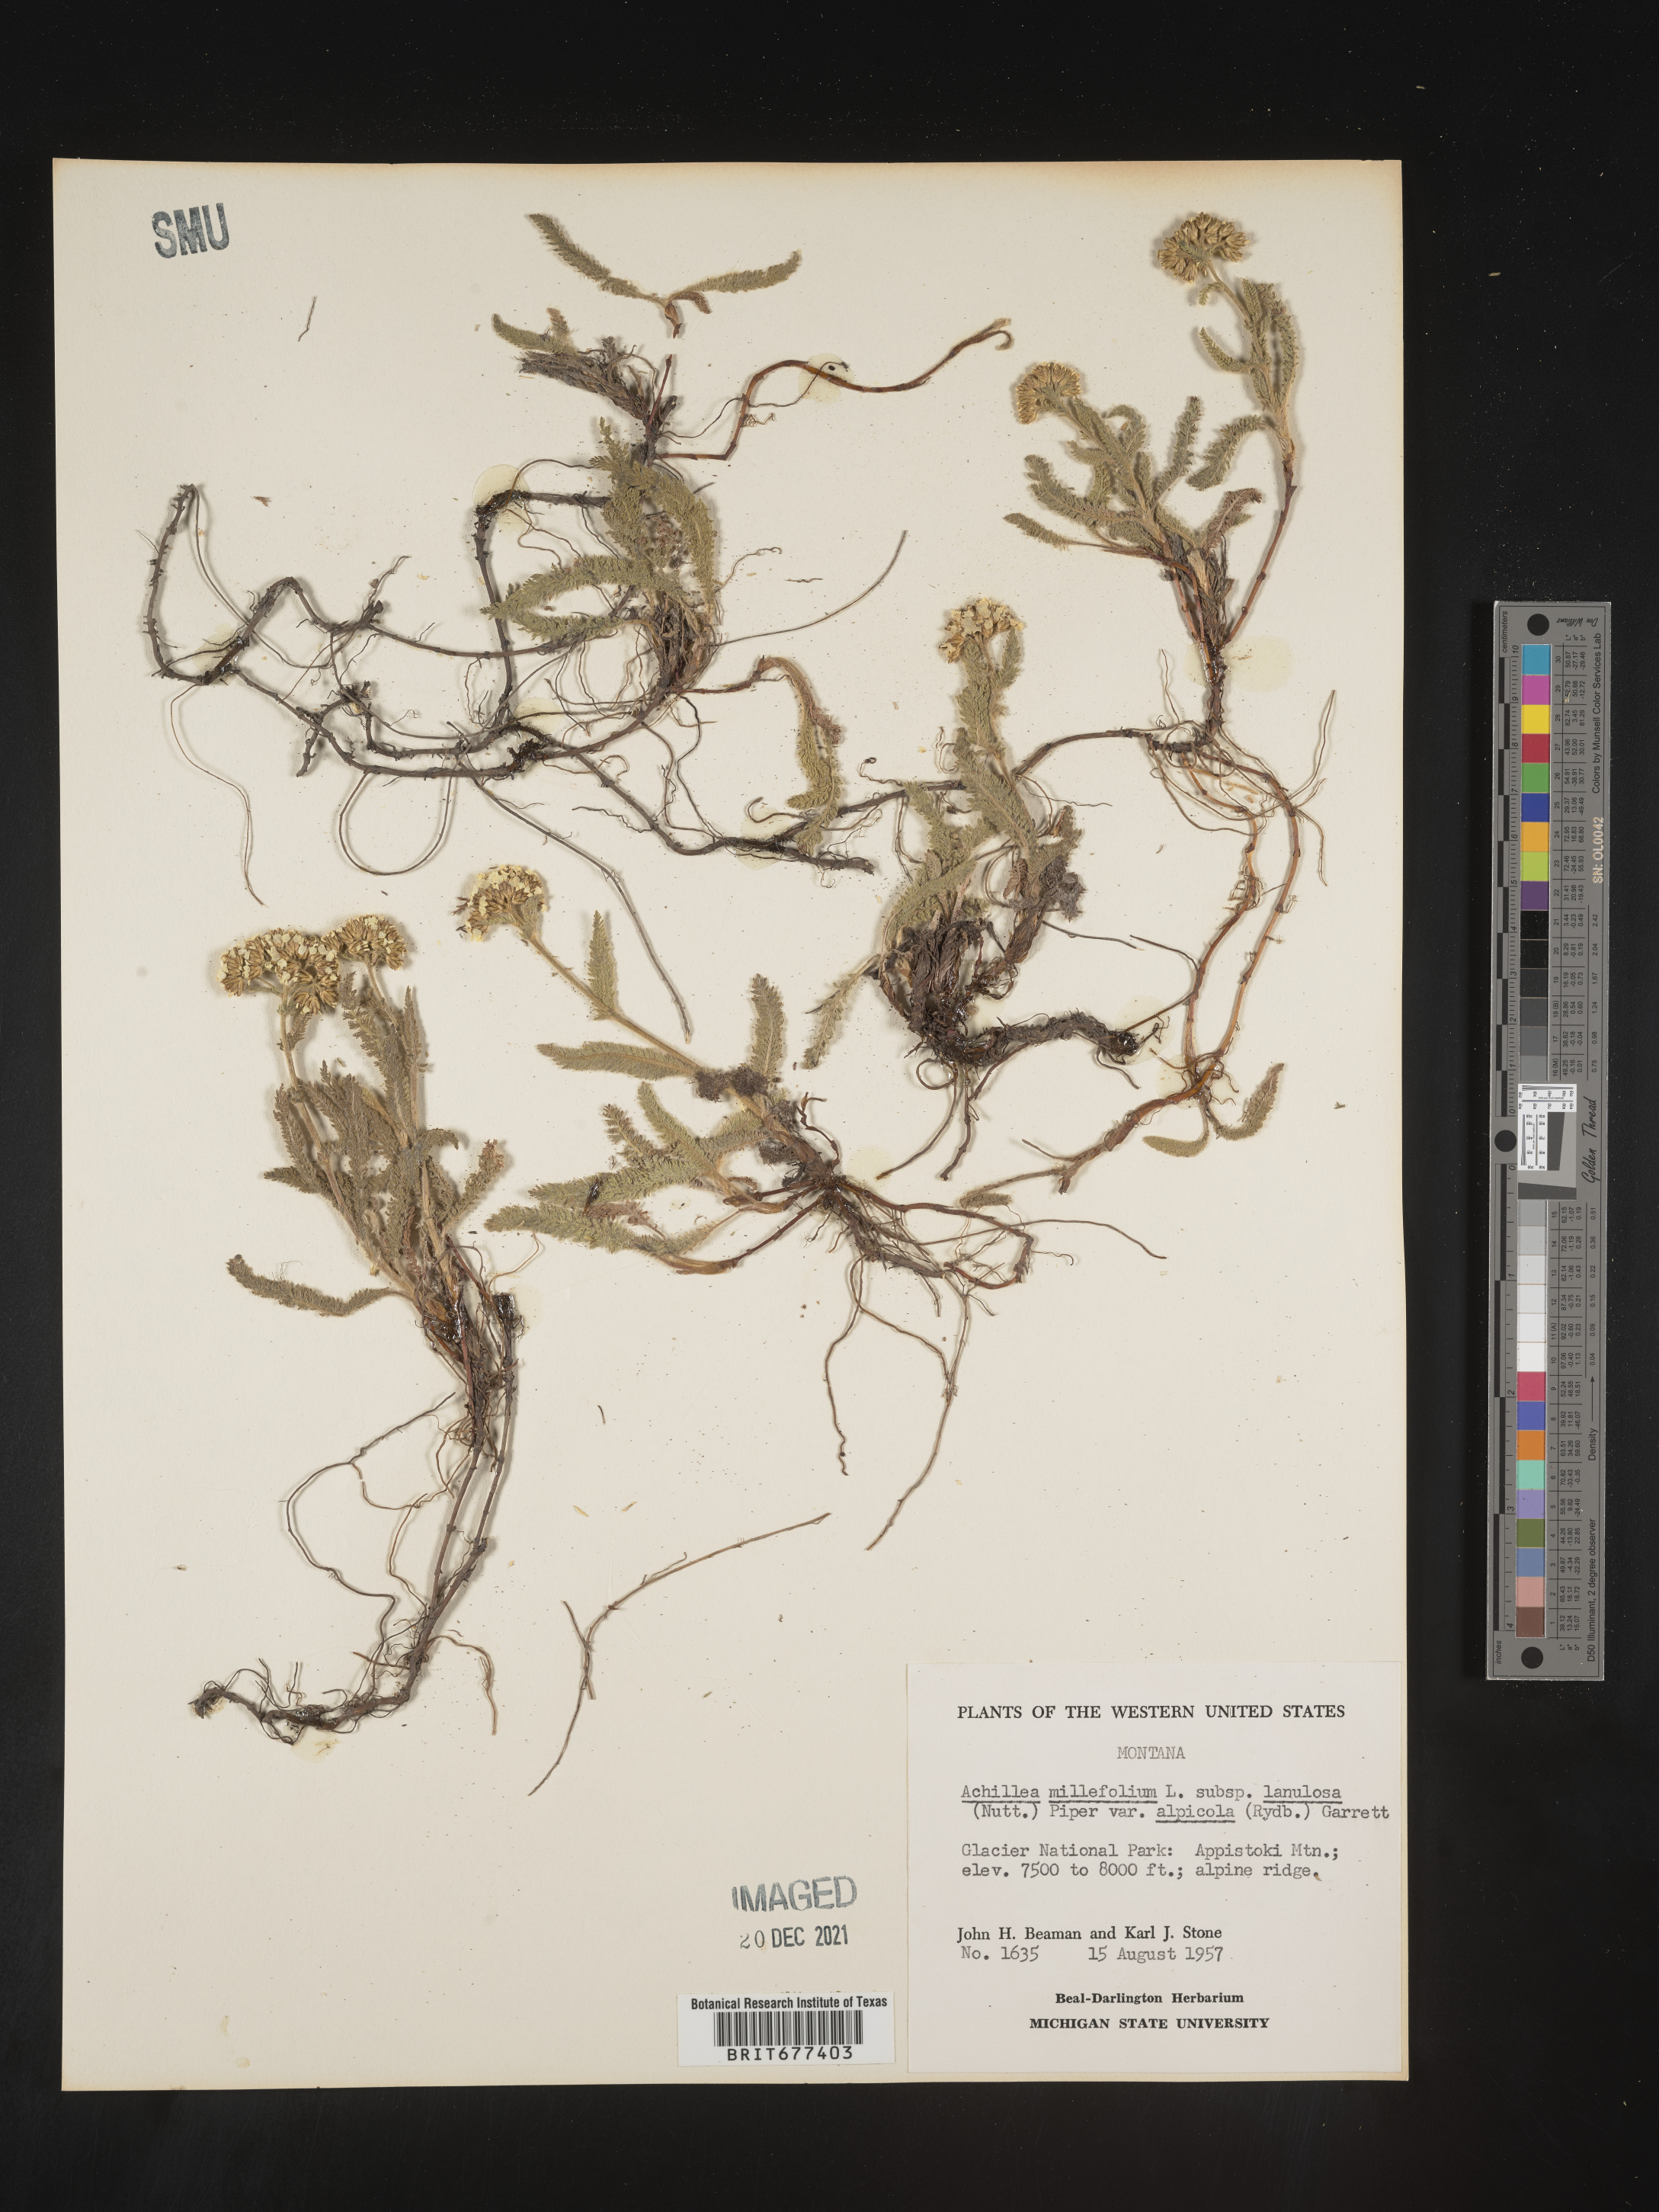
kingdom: Plantae
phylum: Tracheophyta
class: Magnoliopsida
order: Asterales
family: Asteraceae
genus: Achillea
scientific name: Achillea millefolium
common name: Yarrow
